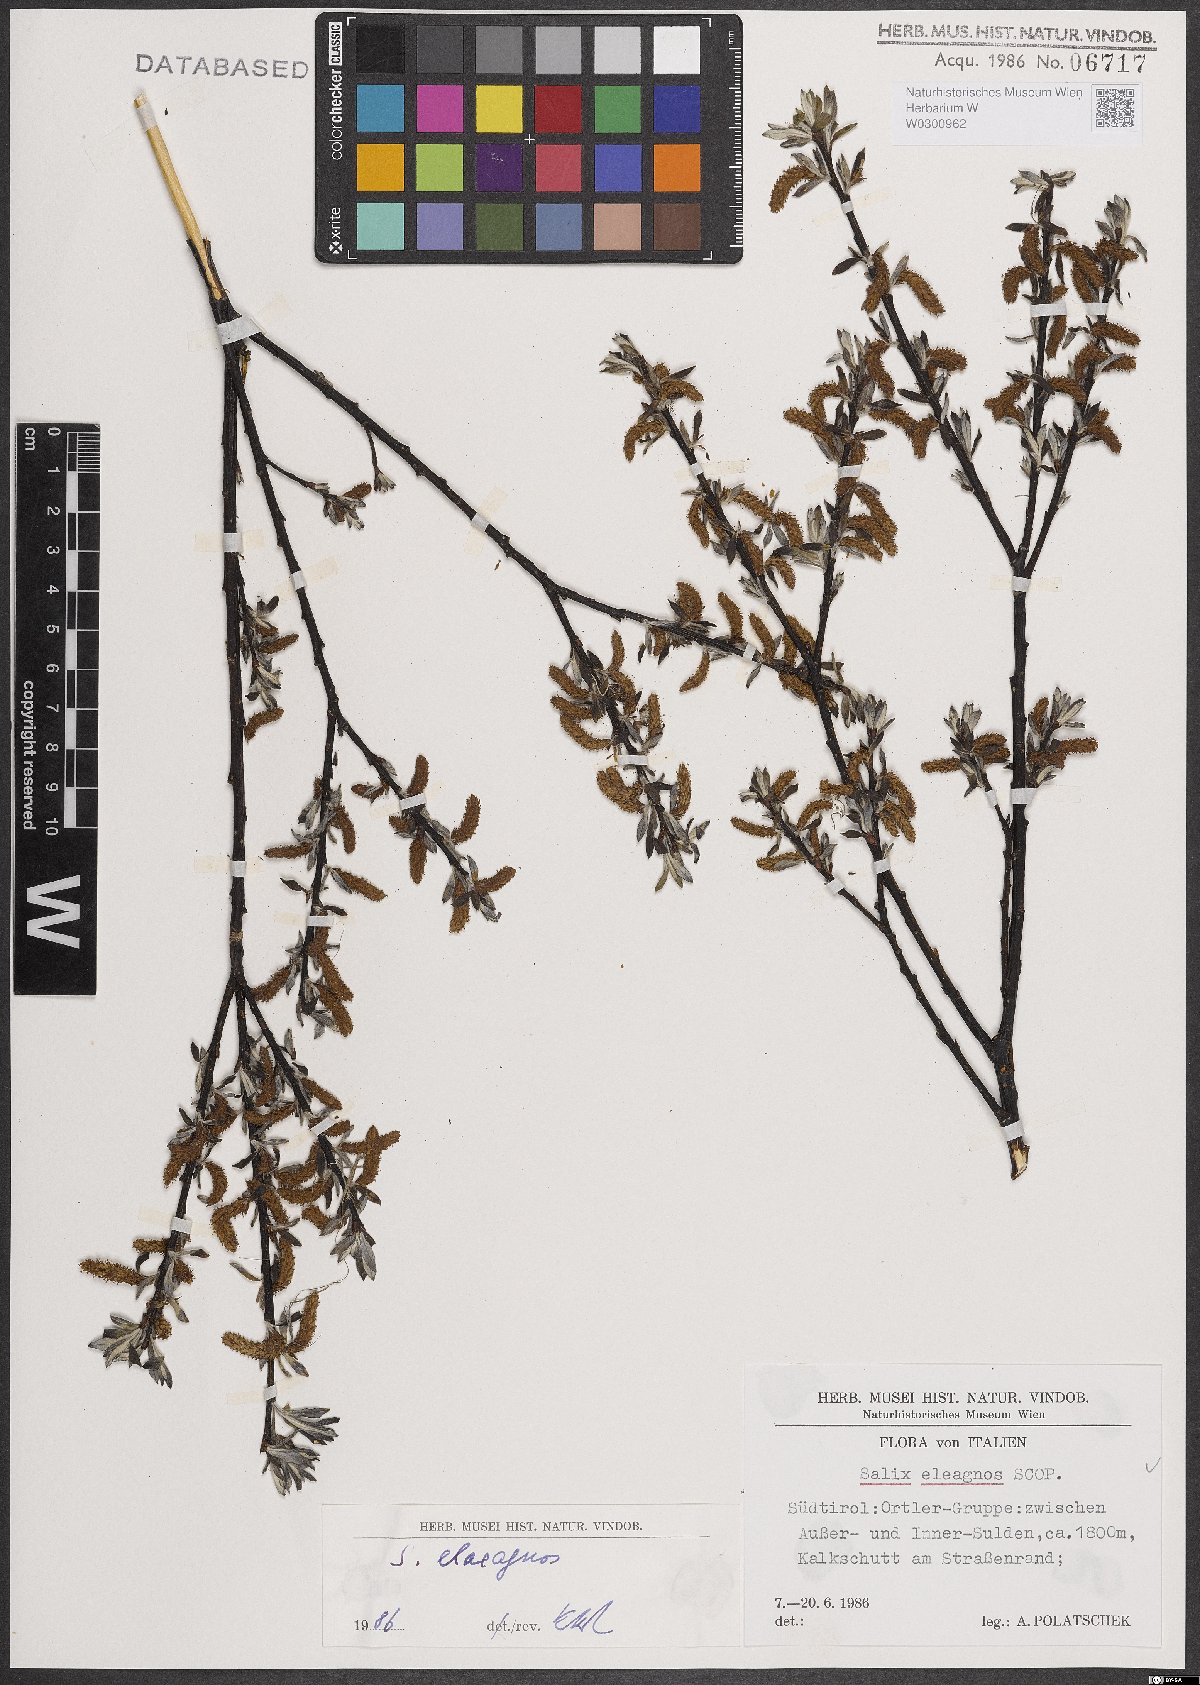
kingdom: Plantae
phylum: Tracheophyta
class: Magnoliopsida
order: Malpighiales
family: Salicaceae
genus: Salix
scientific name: Salix eleagnos
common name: Elaeagnus willow
